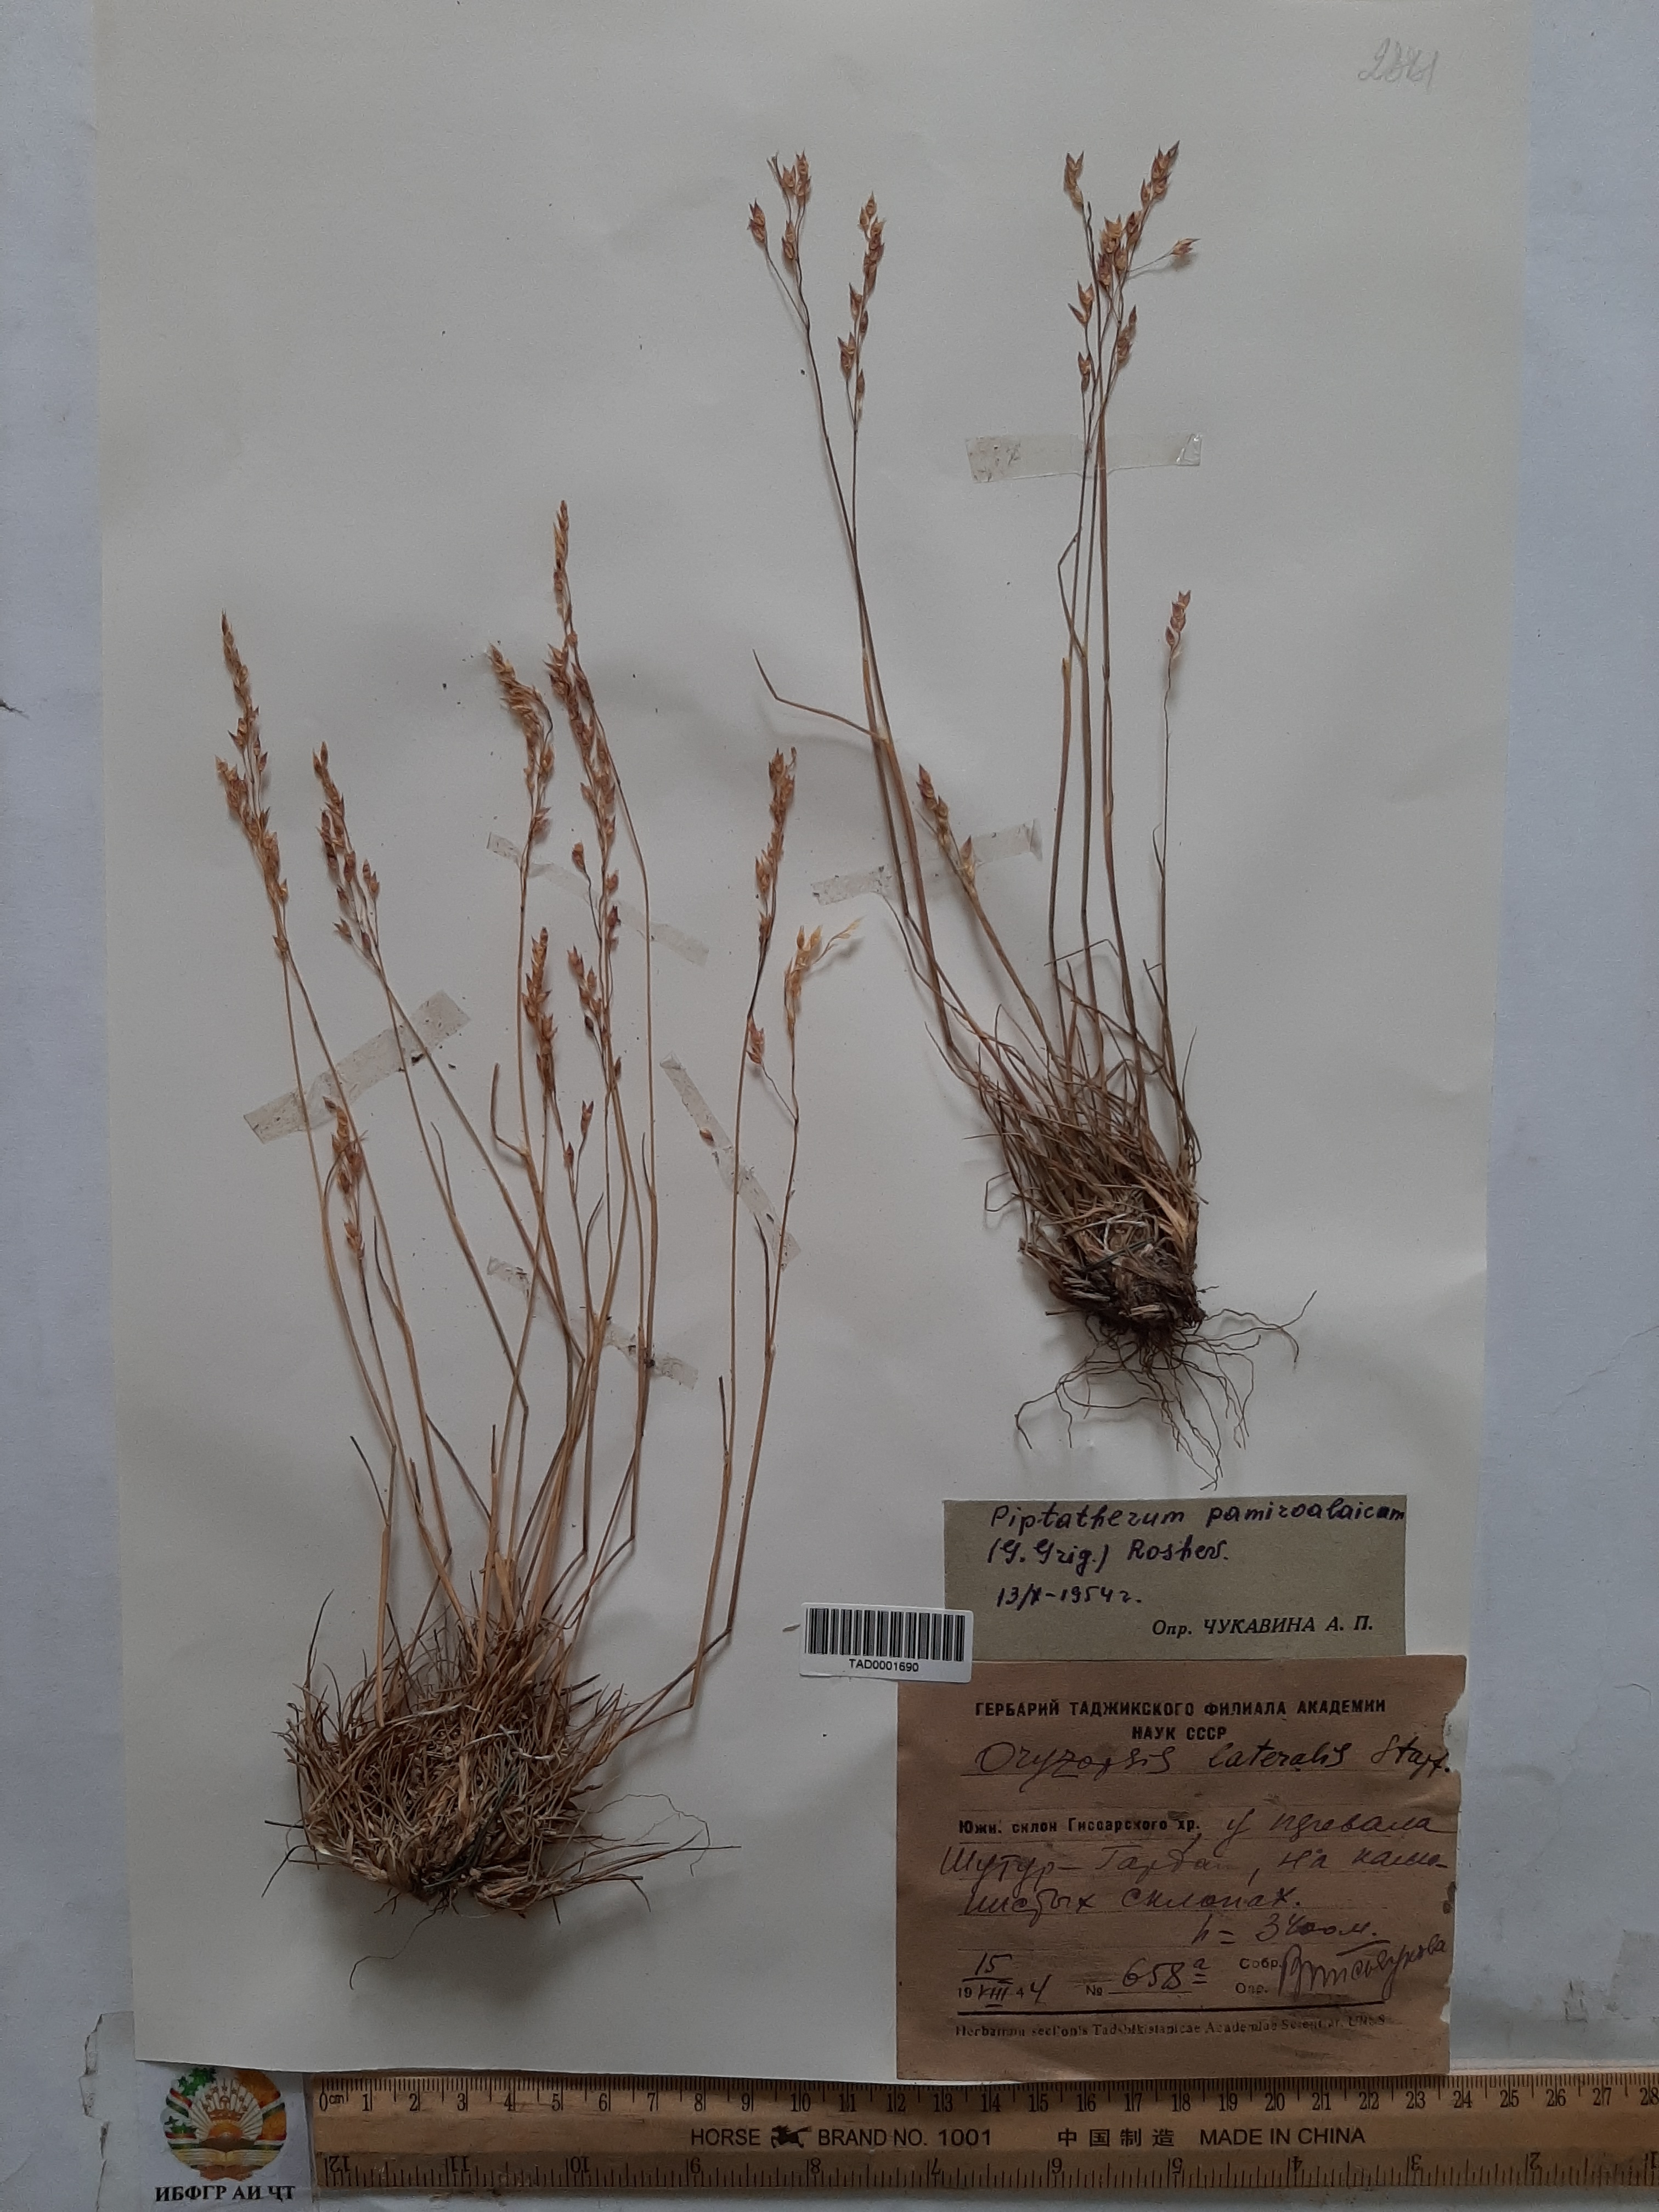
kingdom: Plantae
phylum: Tracheophyta
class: Liliopsida
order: Poales
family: Poaceae
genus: Piptatherum
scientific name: Piptatherum pamiralaicum
